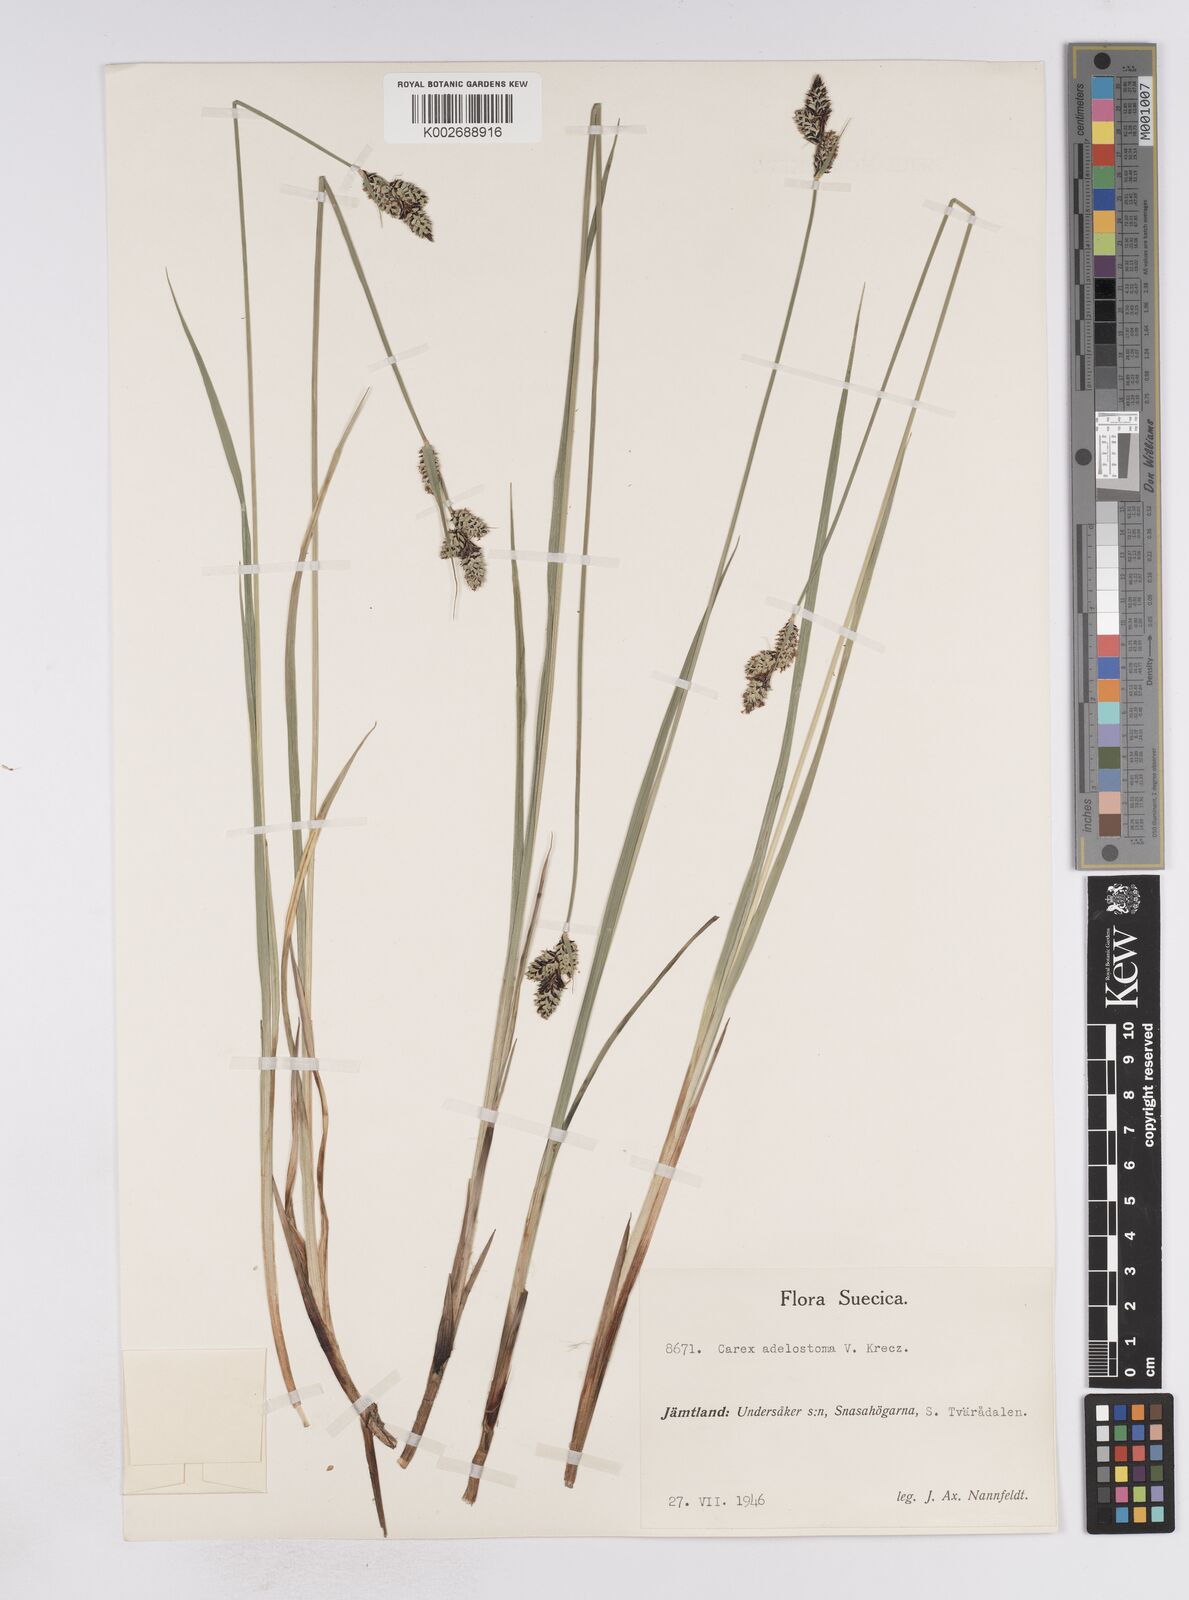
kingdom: Plantae
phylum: Tracheophyta
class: Liliopsida
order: Poales
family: Cyperaceae
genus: Carex
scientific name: Carex adelostoma
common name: Circumpolar sedge
